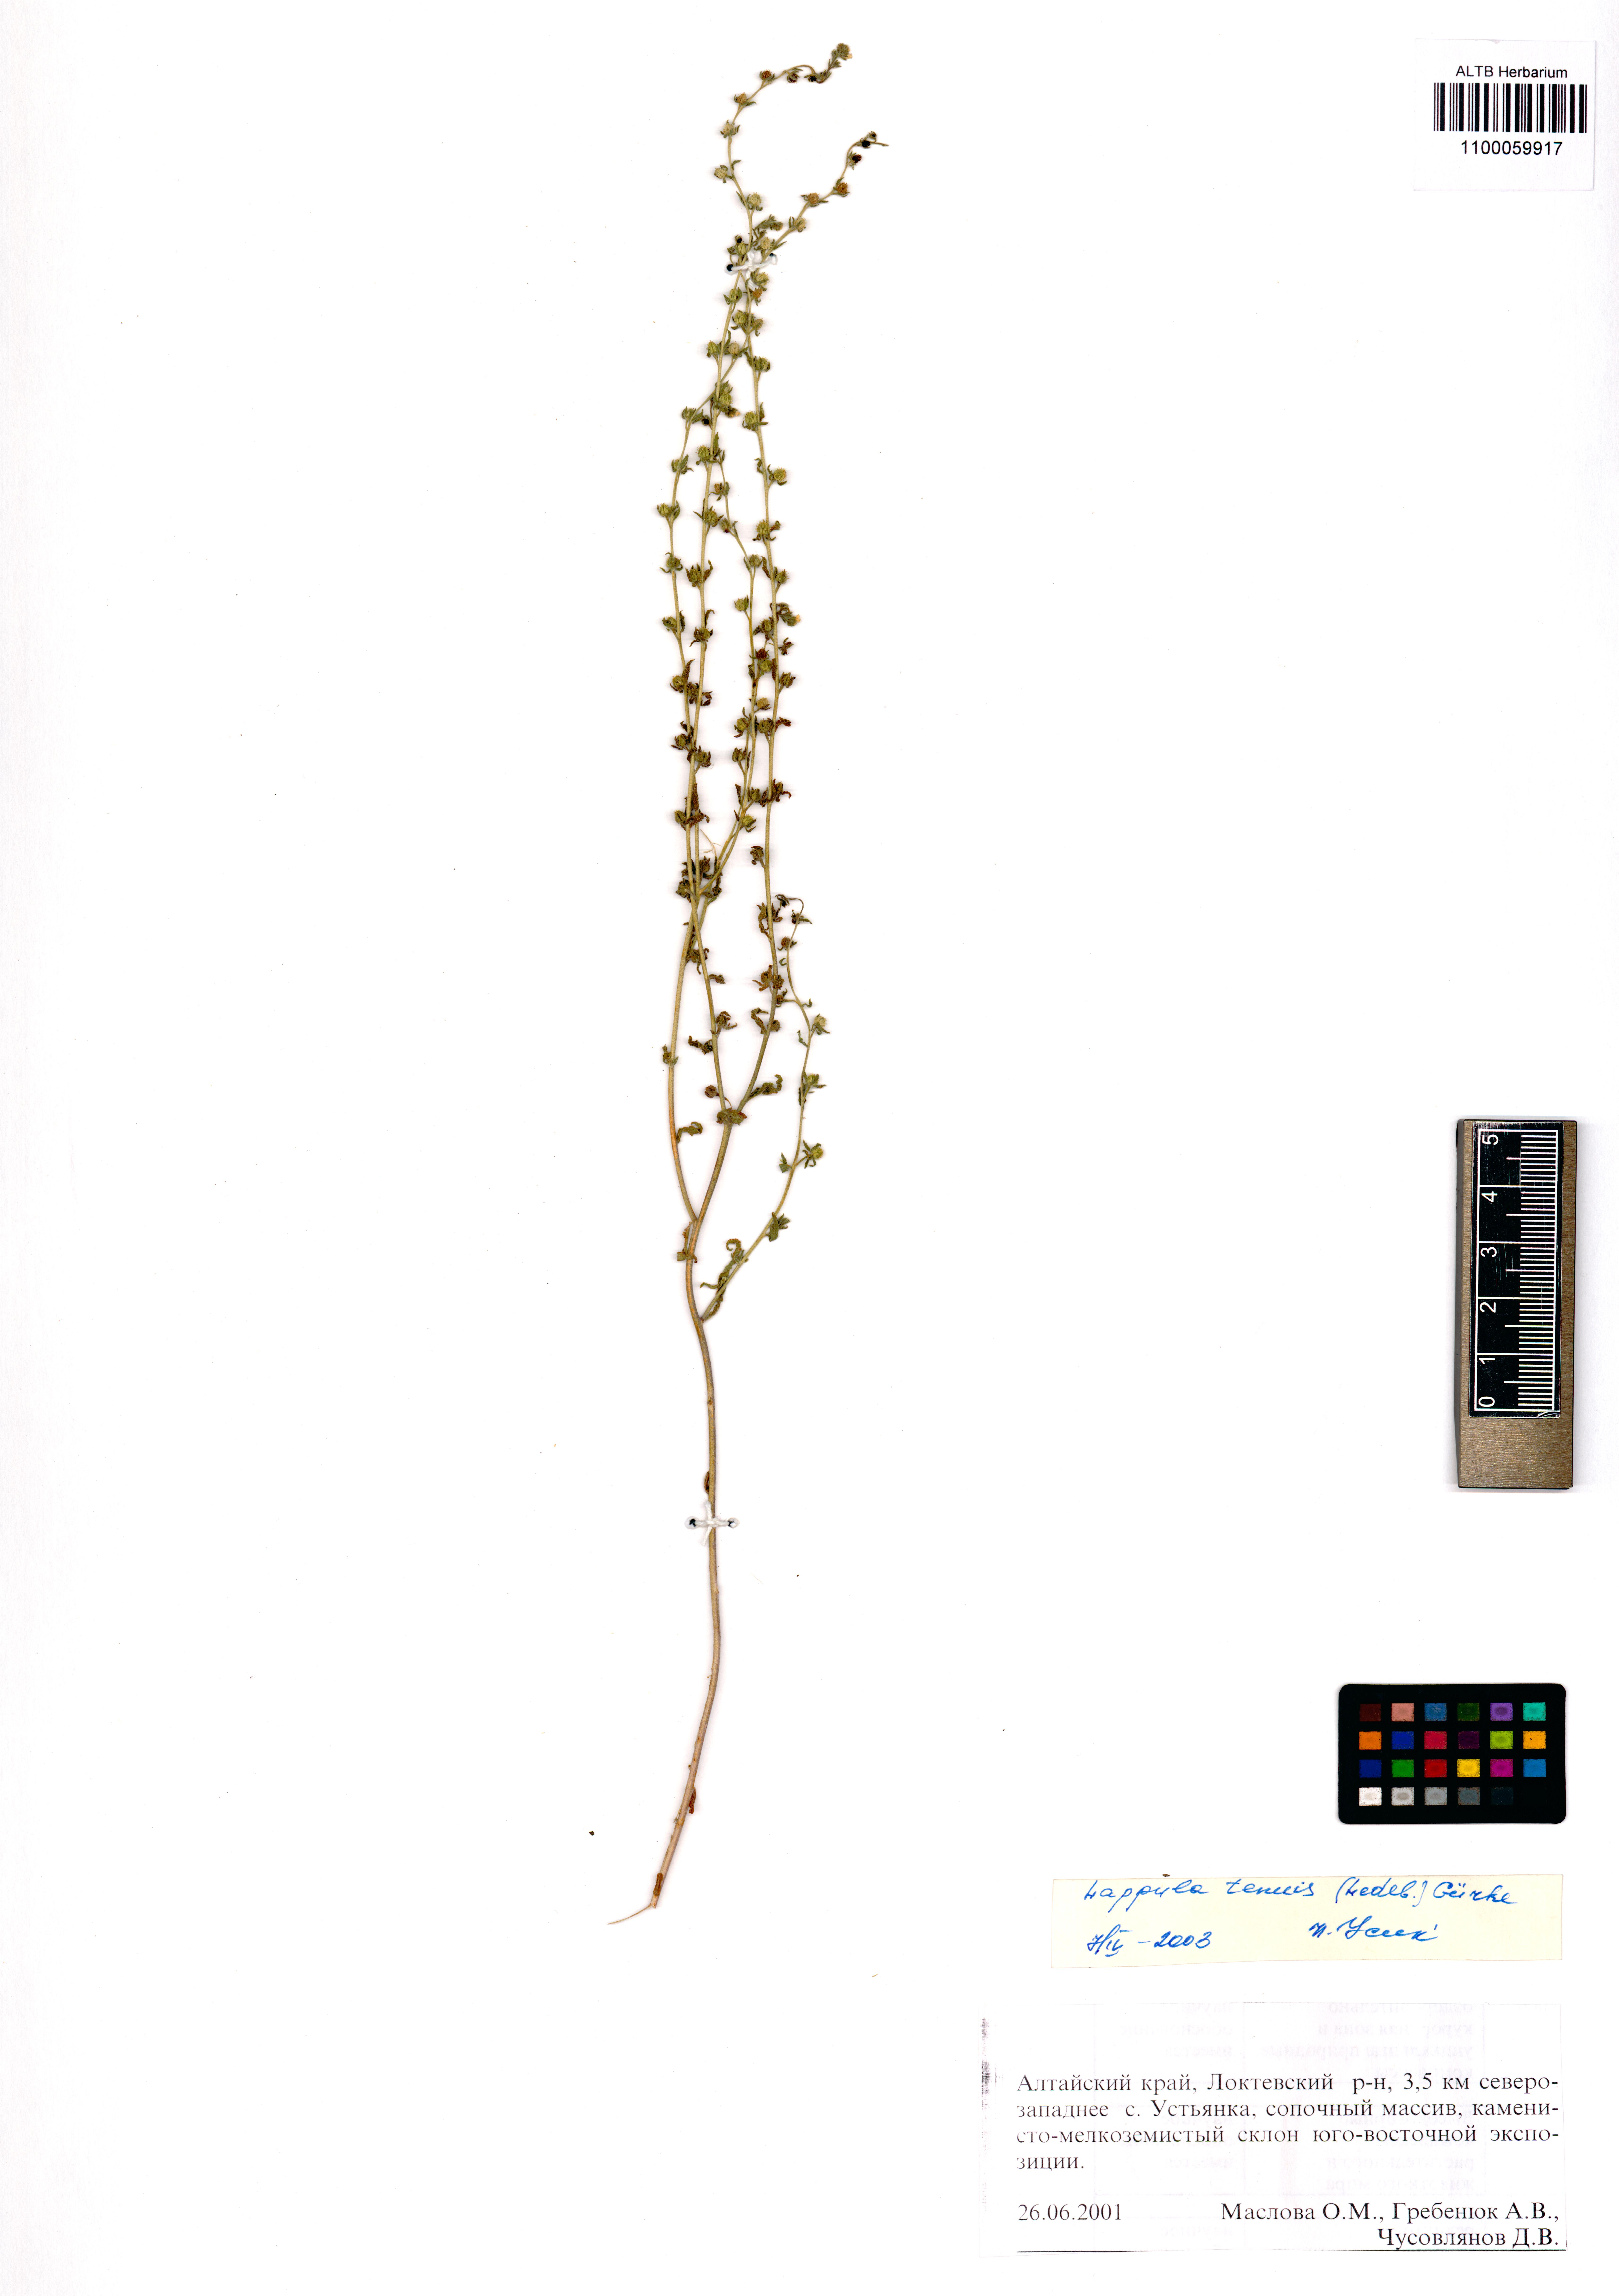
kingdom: Plantae
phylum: Tracheophyta
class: Magnoliopsida
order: Boraginales
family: Boraginaceae
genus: Lappula
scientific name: Lappula tenuis
